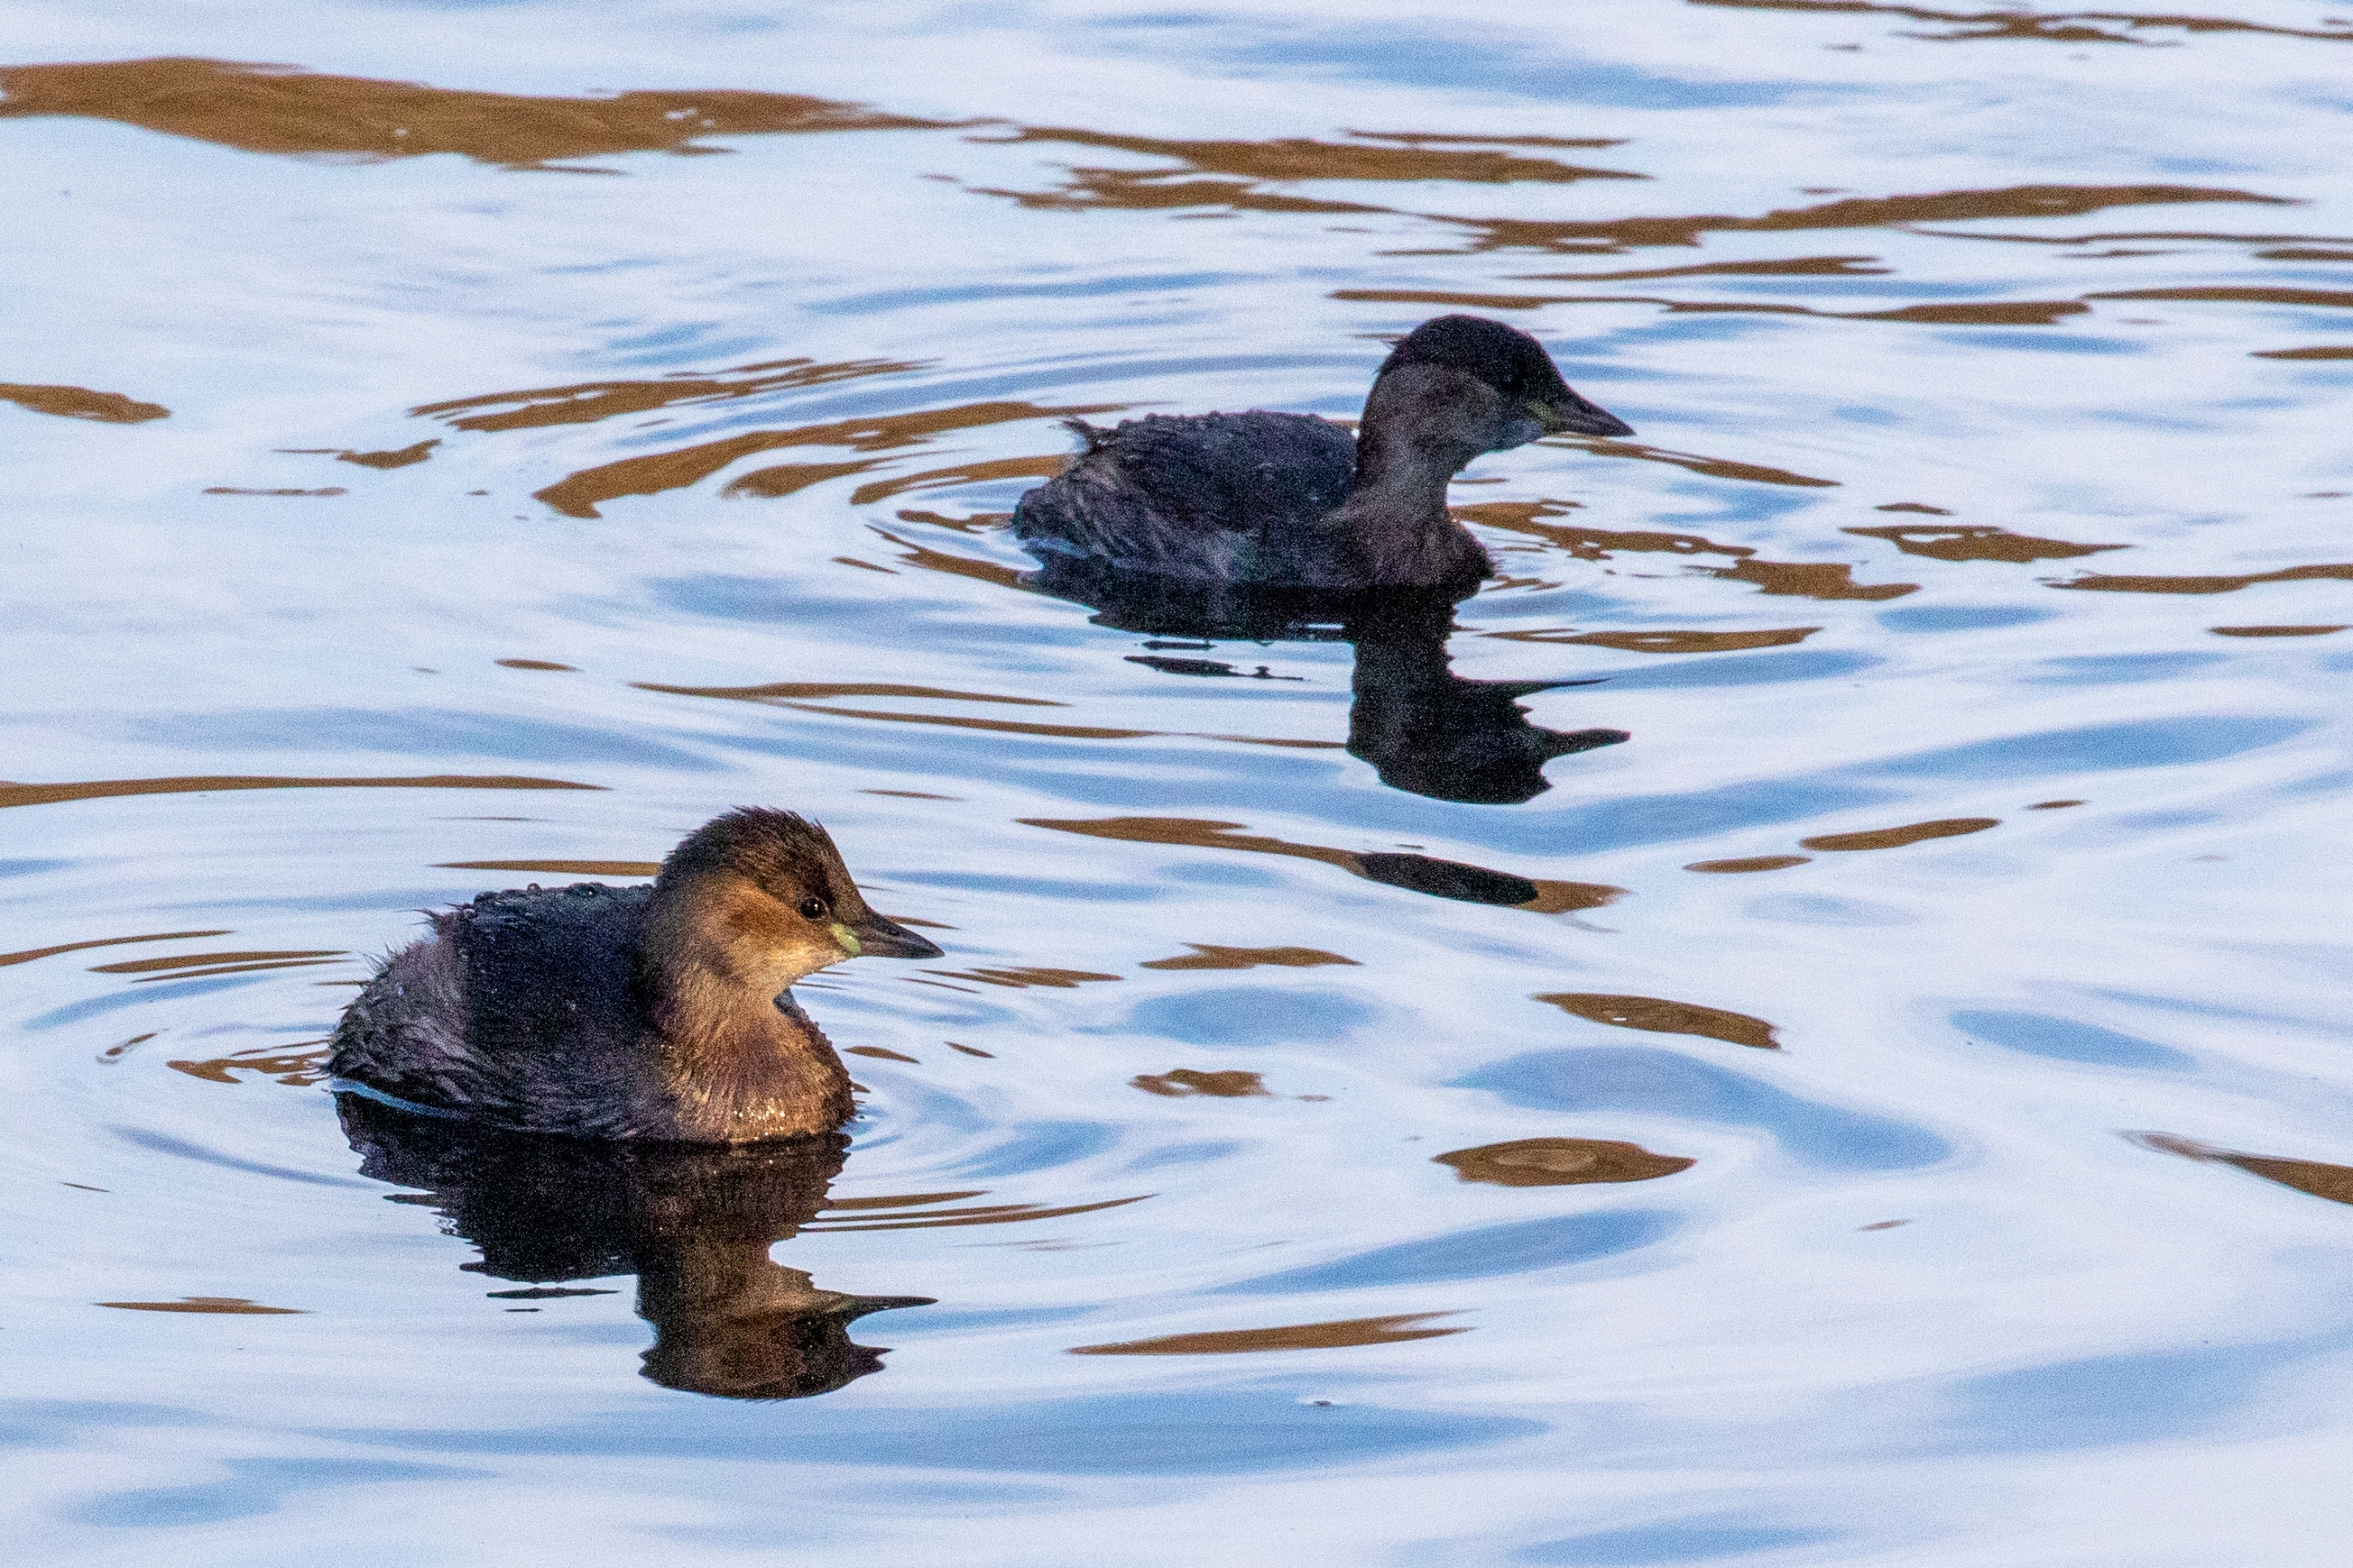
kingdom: Animalia
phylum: Chordata
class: Aves
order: Podicipediformes
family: Podicipedidae
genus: Tachybaptus
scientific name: Tachybaptus ruficollis
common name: Lille lappedykker
